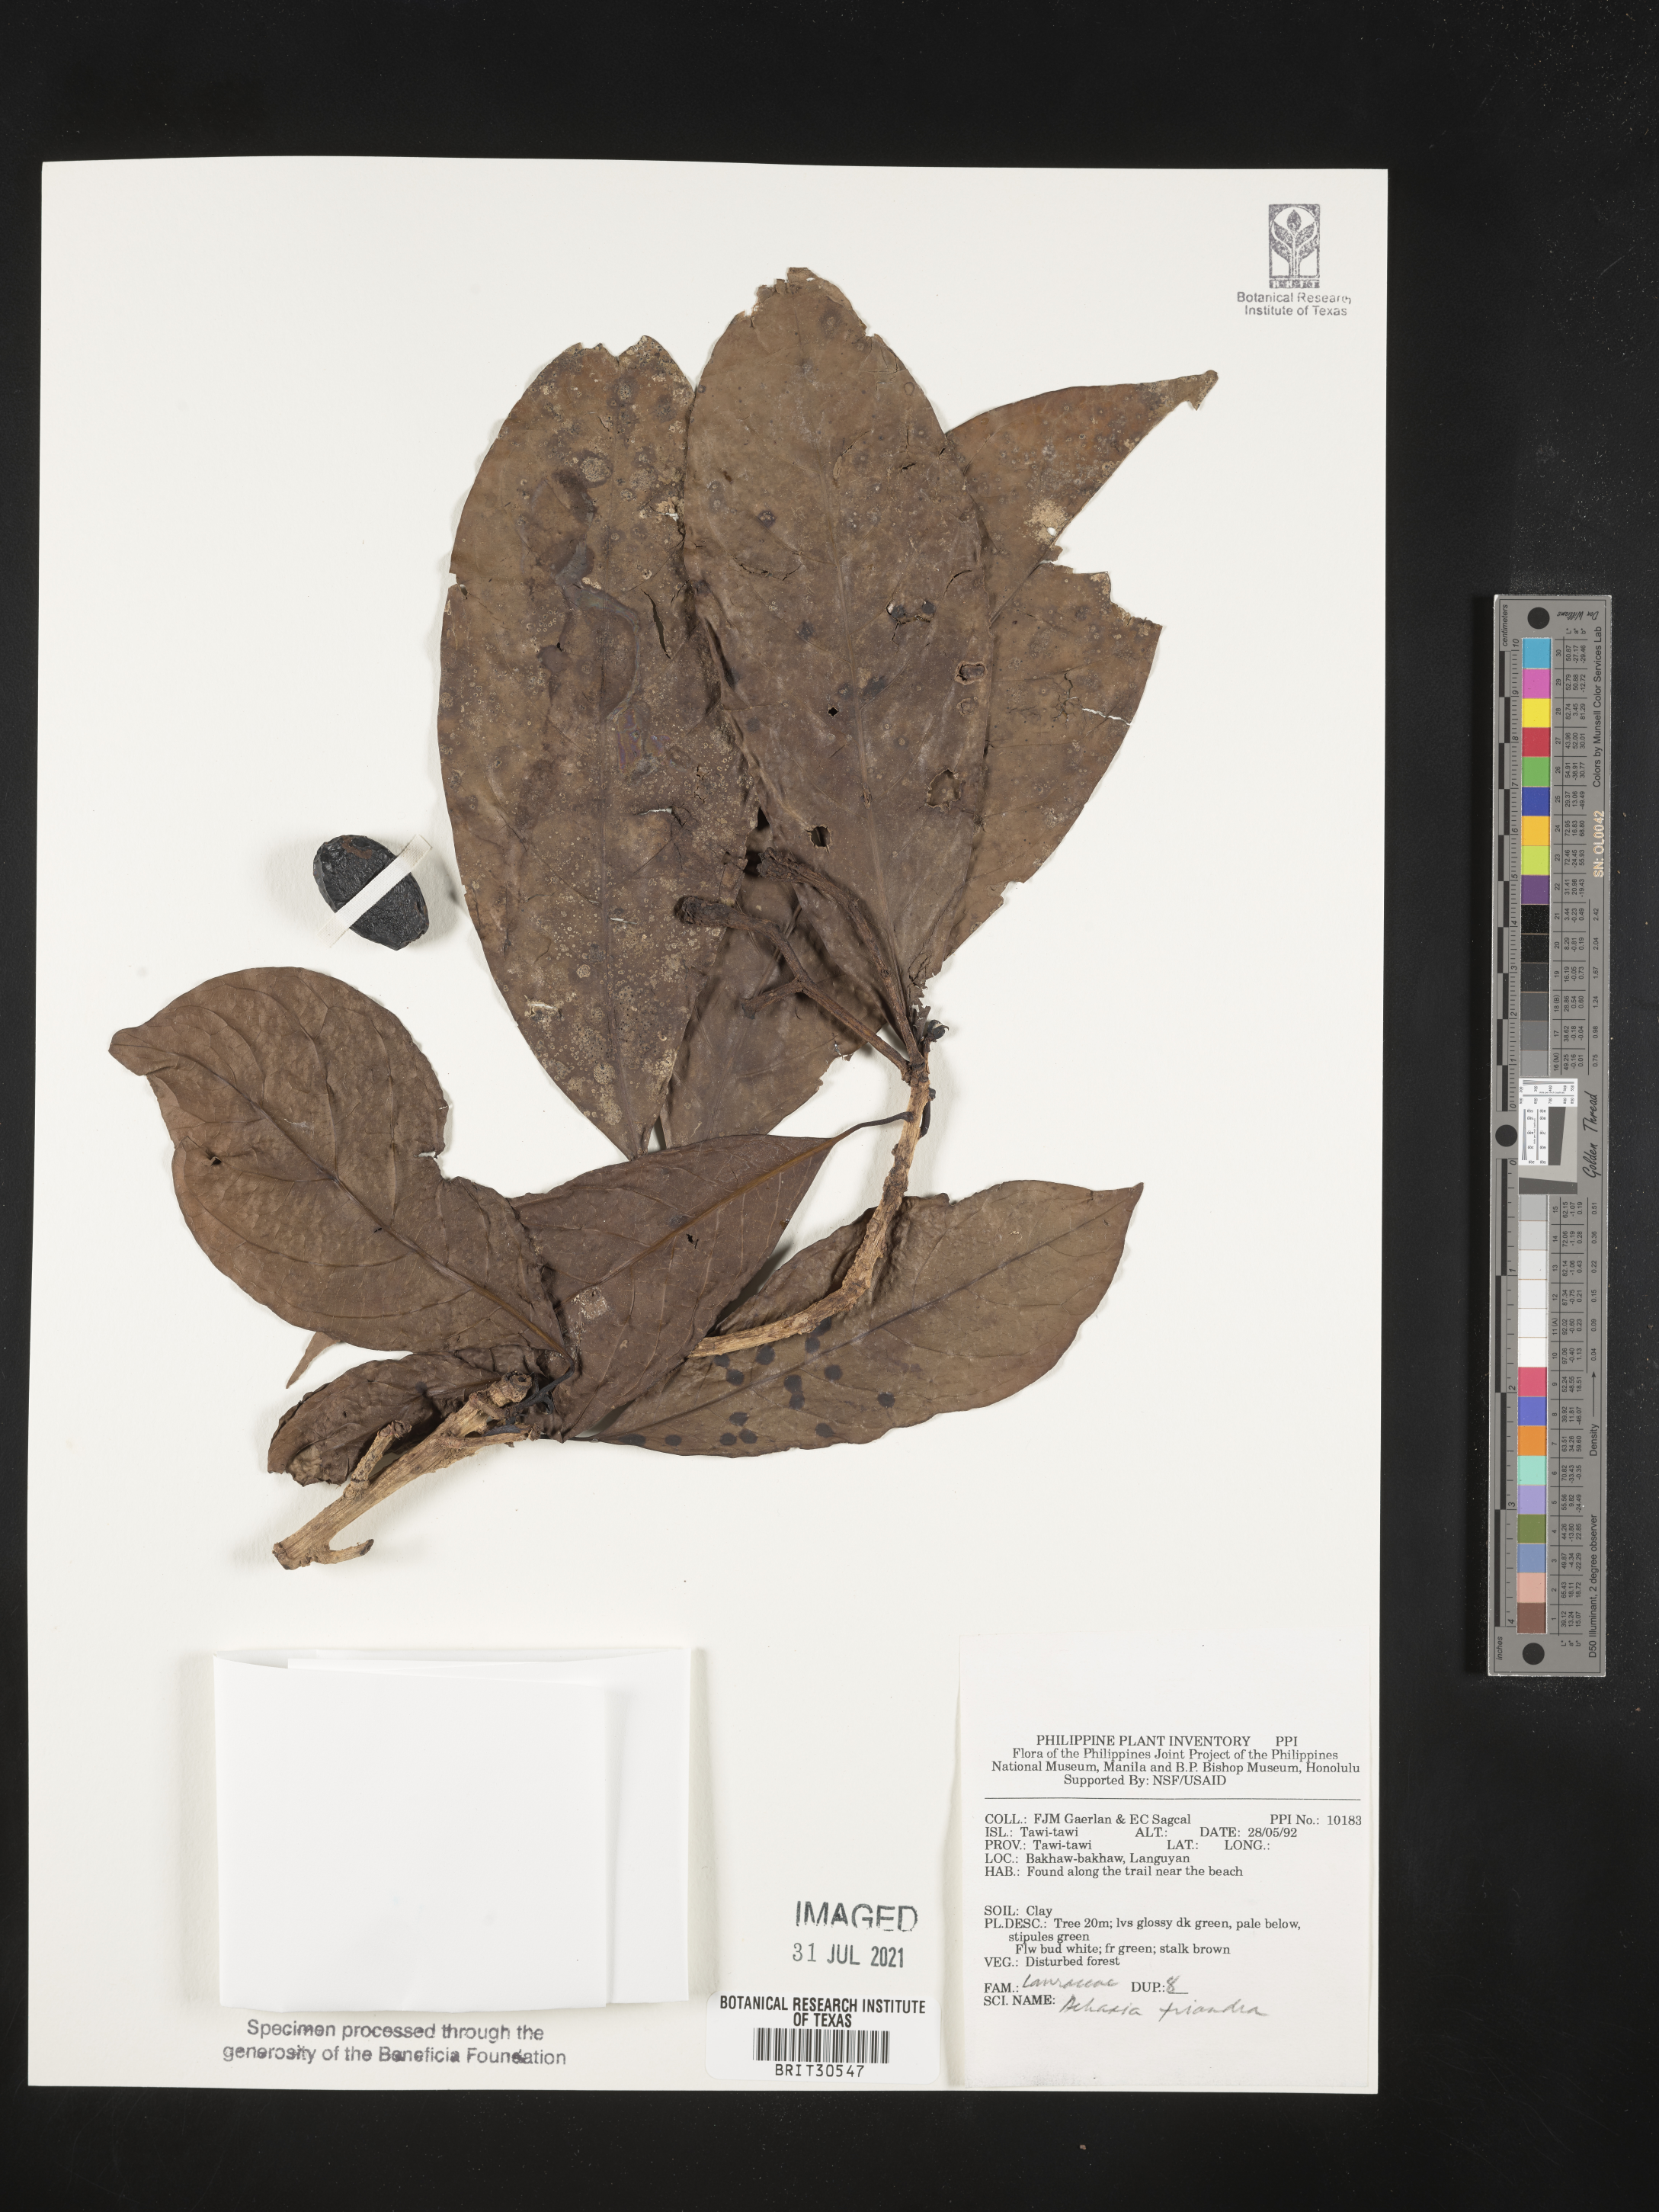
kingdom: Plantae
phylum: Tracheophyta
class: Magnoliopsida
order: Laurales
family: Lauraceae
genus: Dehaasia
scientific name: Dehaasia incrassata
